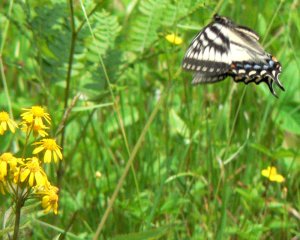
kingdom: Animalia
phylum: Arthropoda
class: Insecta
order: Lepidoptera
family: Papilionidae
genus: Pterourus
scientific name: Pterourus canadensis
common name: Canadian Tiger Swallowtail
